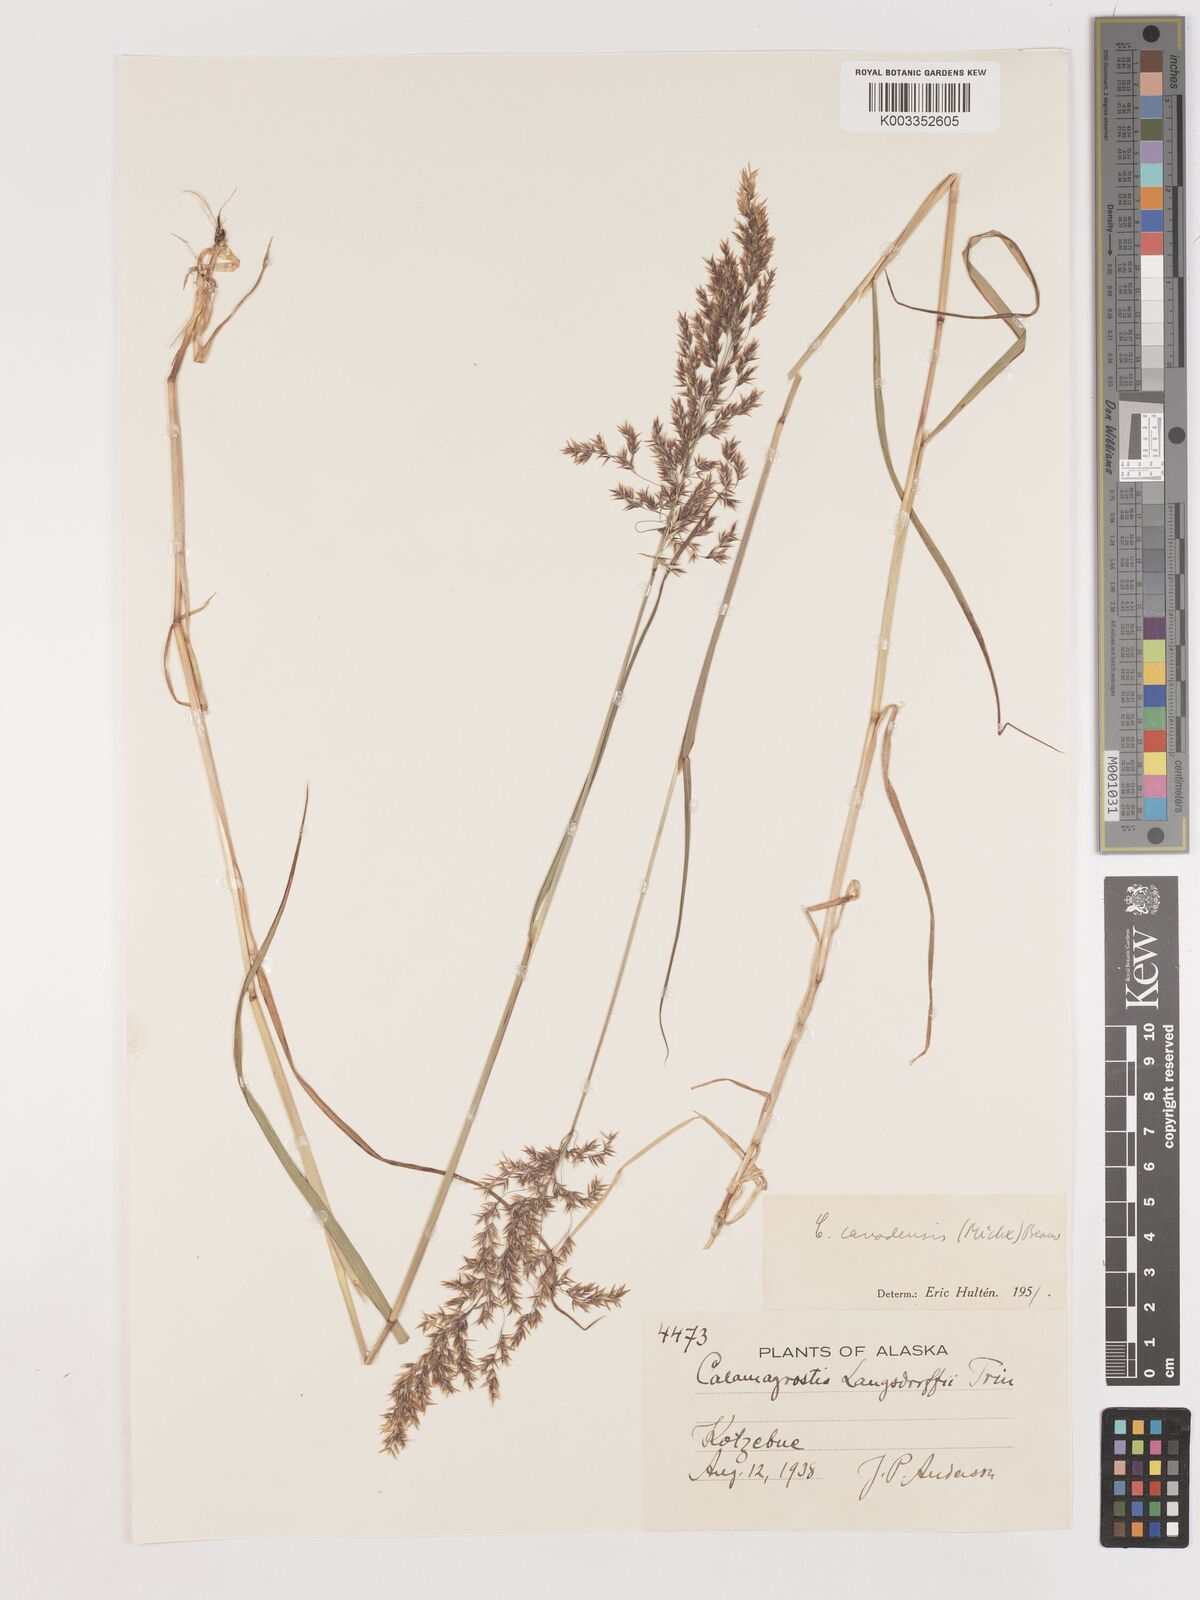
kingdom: Plantae
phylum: Tracheophyta
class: Liliopsida
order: Poales
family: Poaceae
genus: Calamagrostis
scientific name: Calamagrostis canadensis
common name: Canada bluejoint
